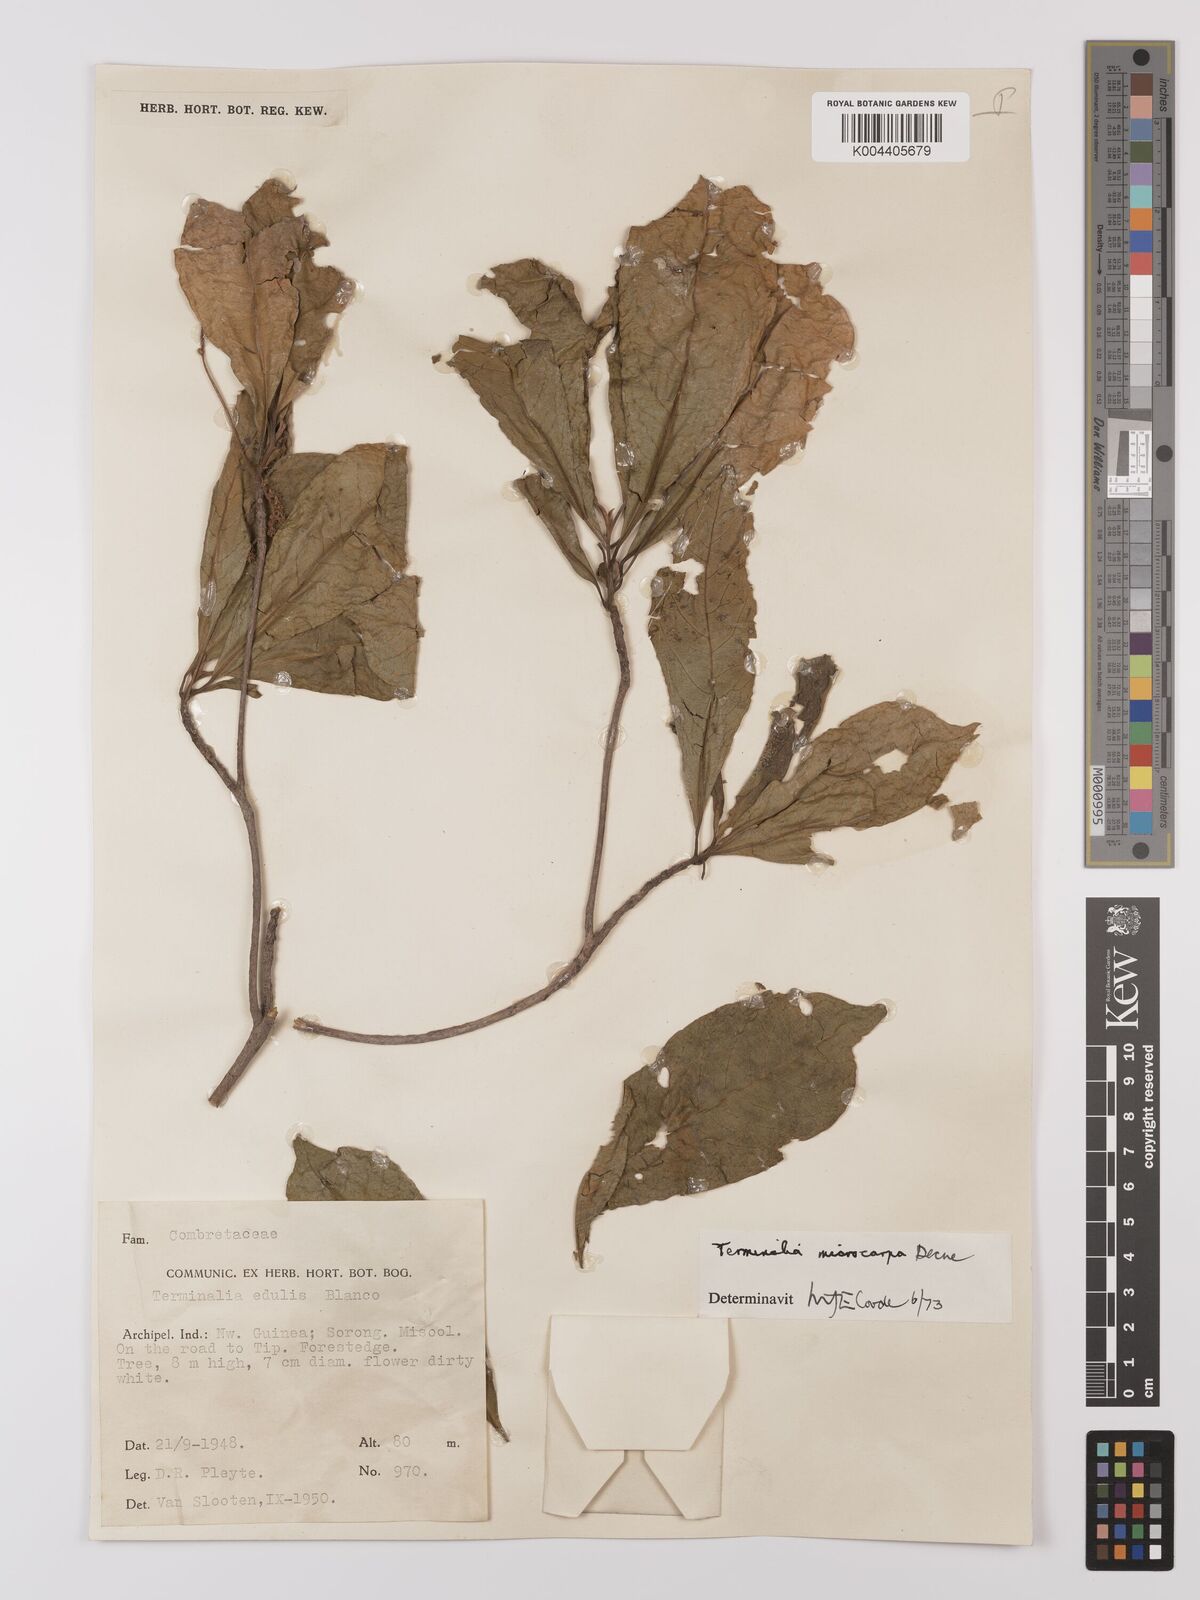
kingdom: Plantae
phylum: Tracheophyta
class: Magnoliopsida
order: Myrtales
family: Combretaceae
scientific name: Combretaceae
